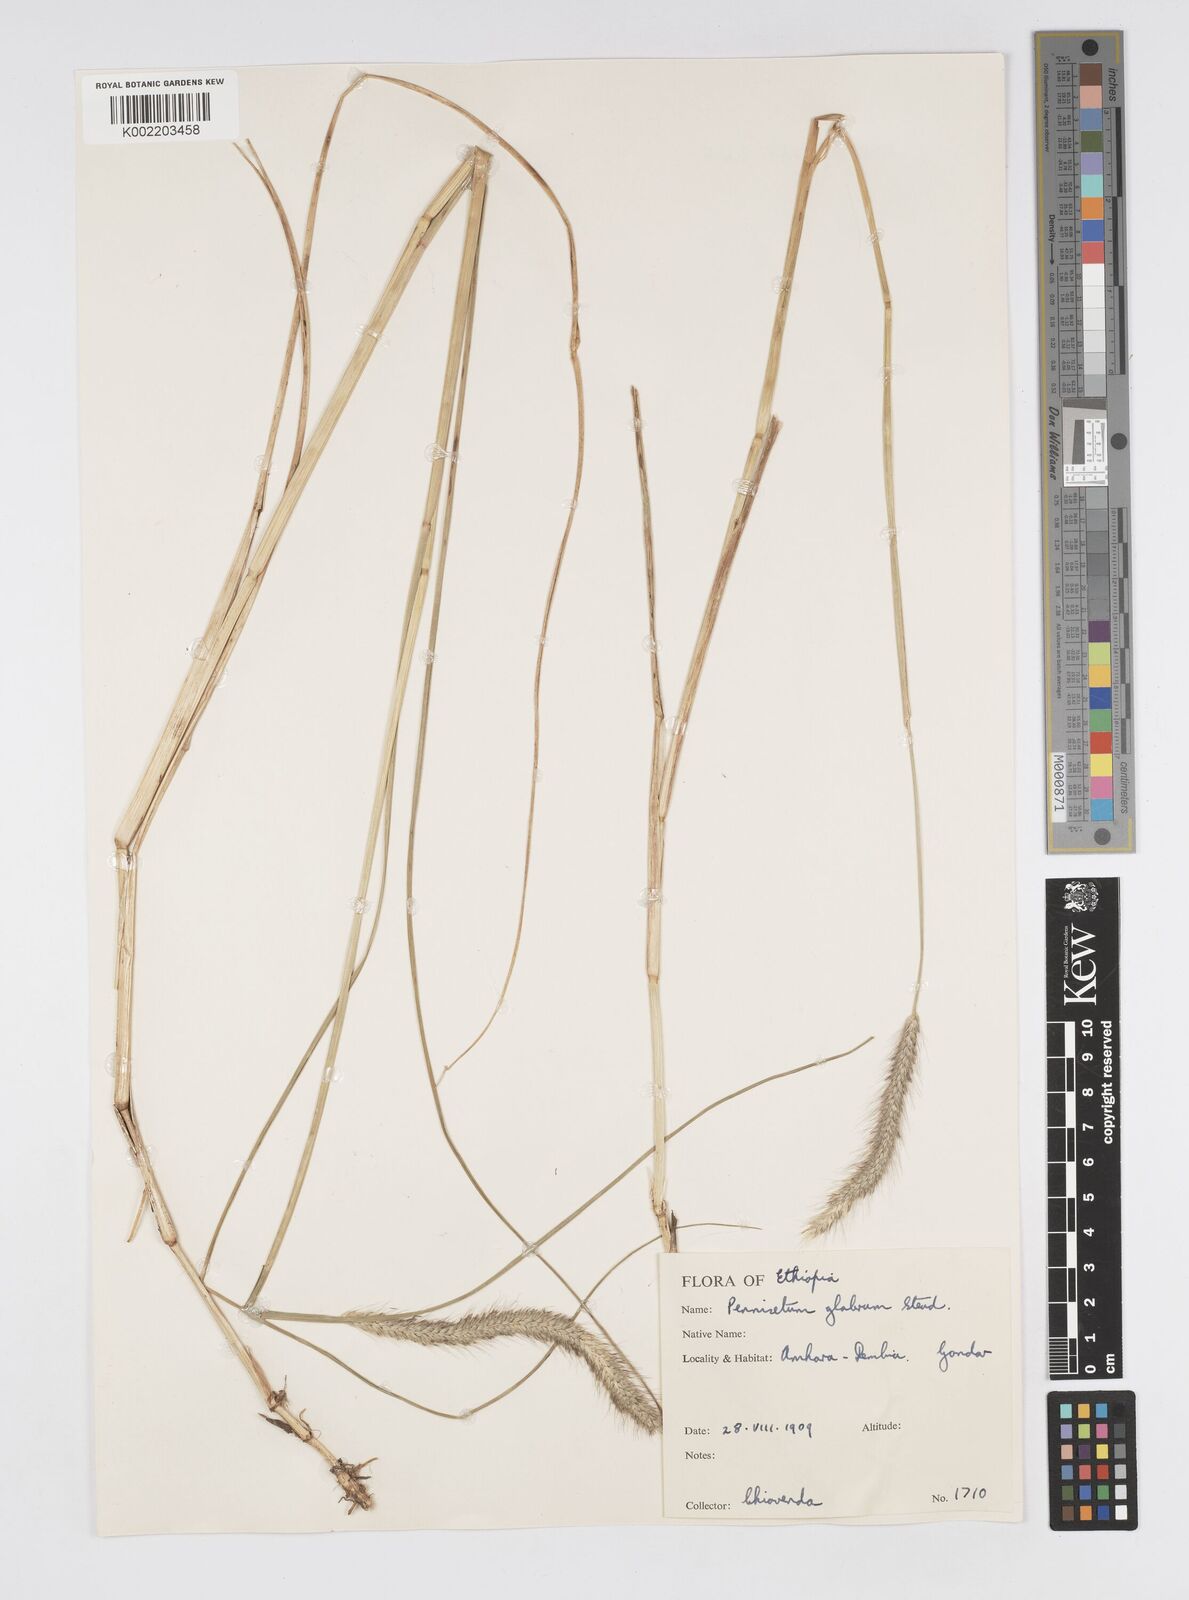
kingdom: Plantae
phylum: Tracheophyta
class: Liliopsida
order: Poales
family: Poaceae
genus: Cenchrus
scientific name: Cenchrus geniculatus
